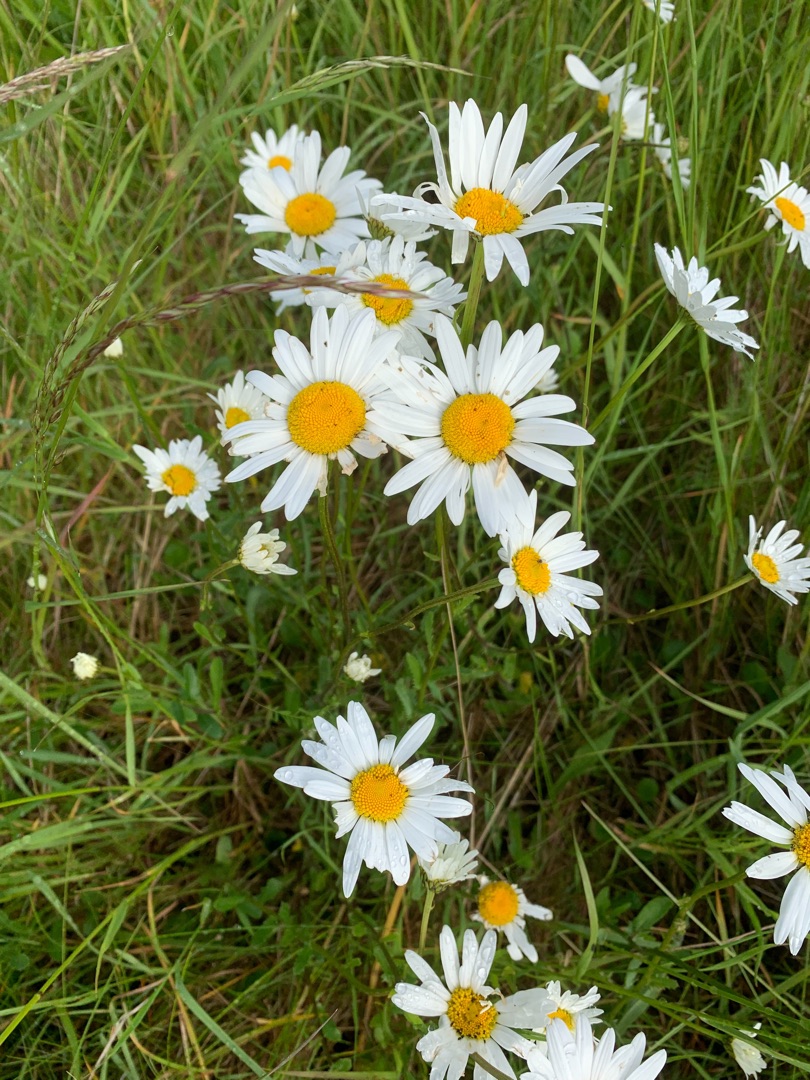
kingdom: Plantae
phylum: Tracheophyta
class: Magnoliopsida
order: Asterales
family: Asteraceae
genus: Leucanthemum
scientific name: Leucanthemum vulgare
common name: Hvid okseøje
